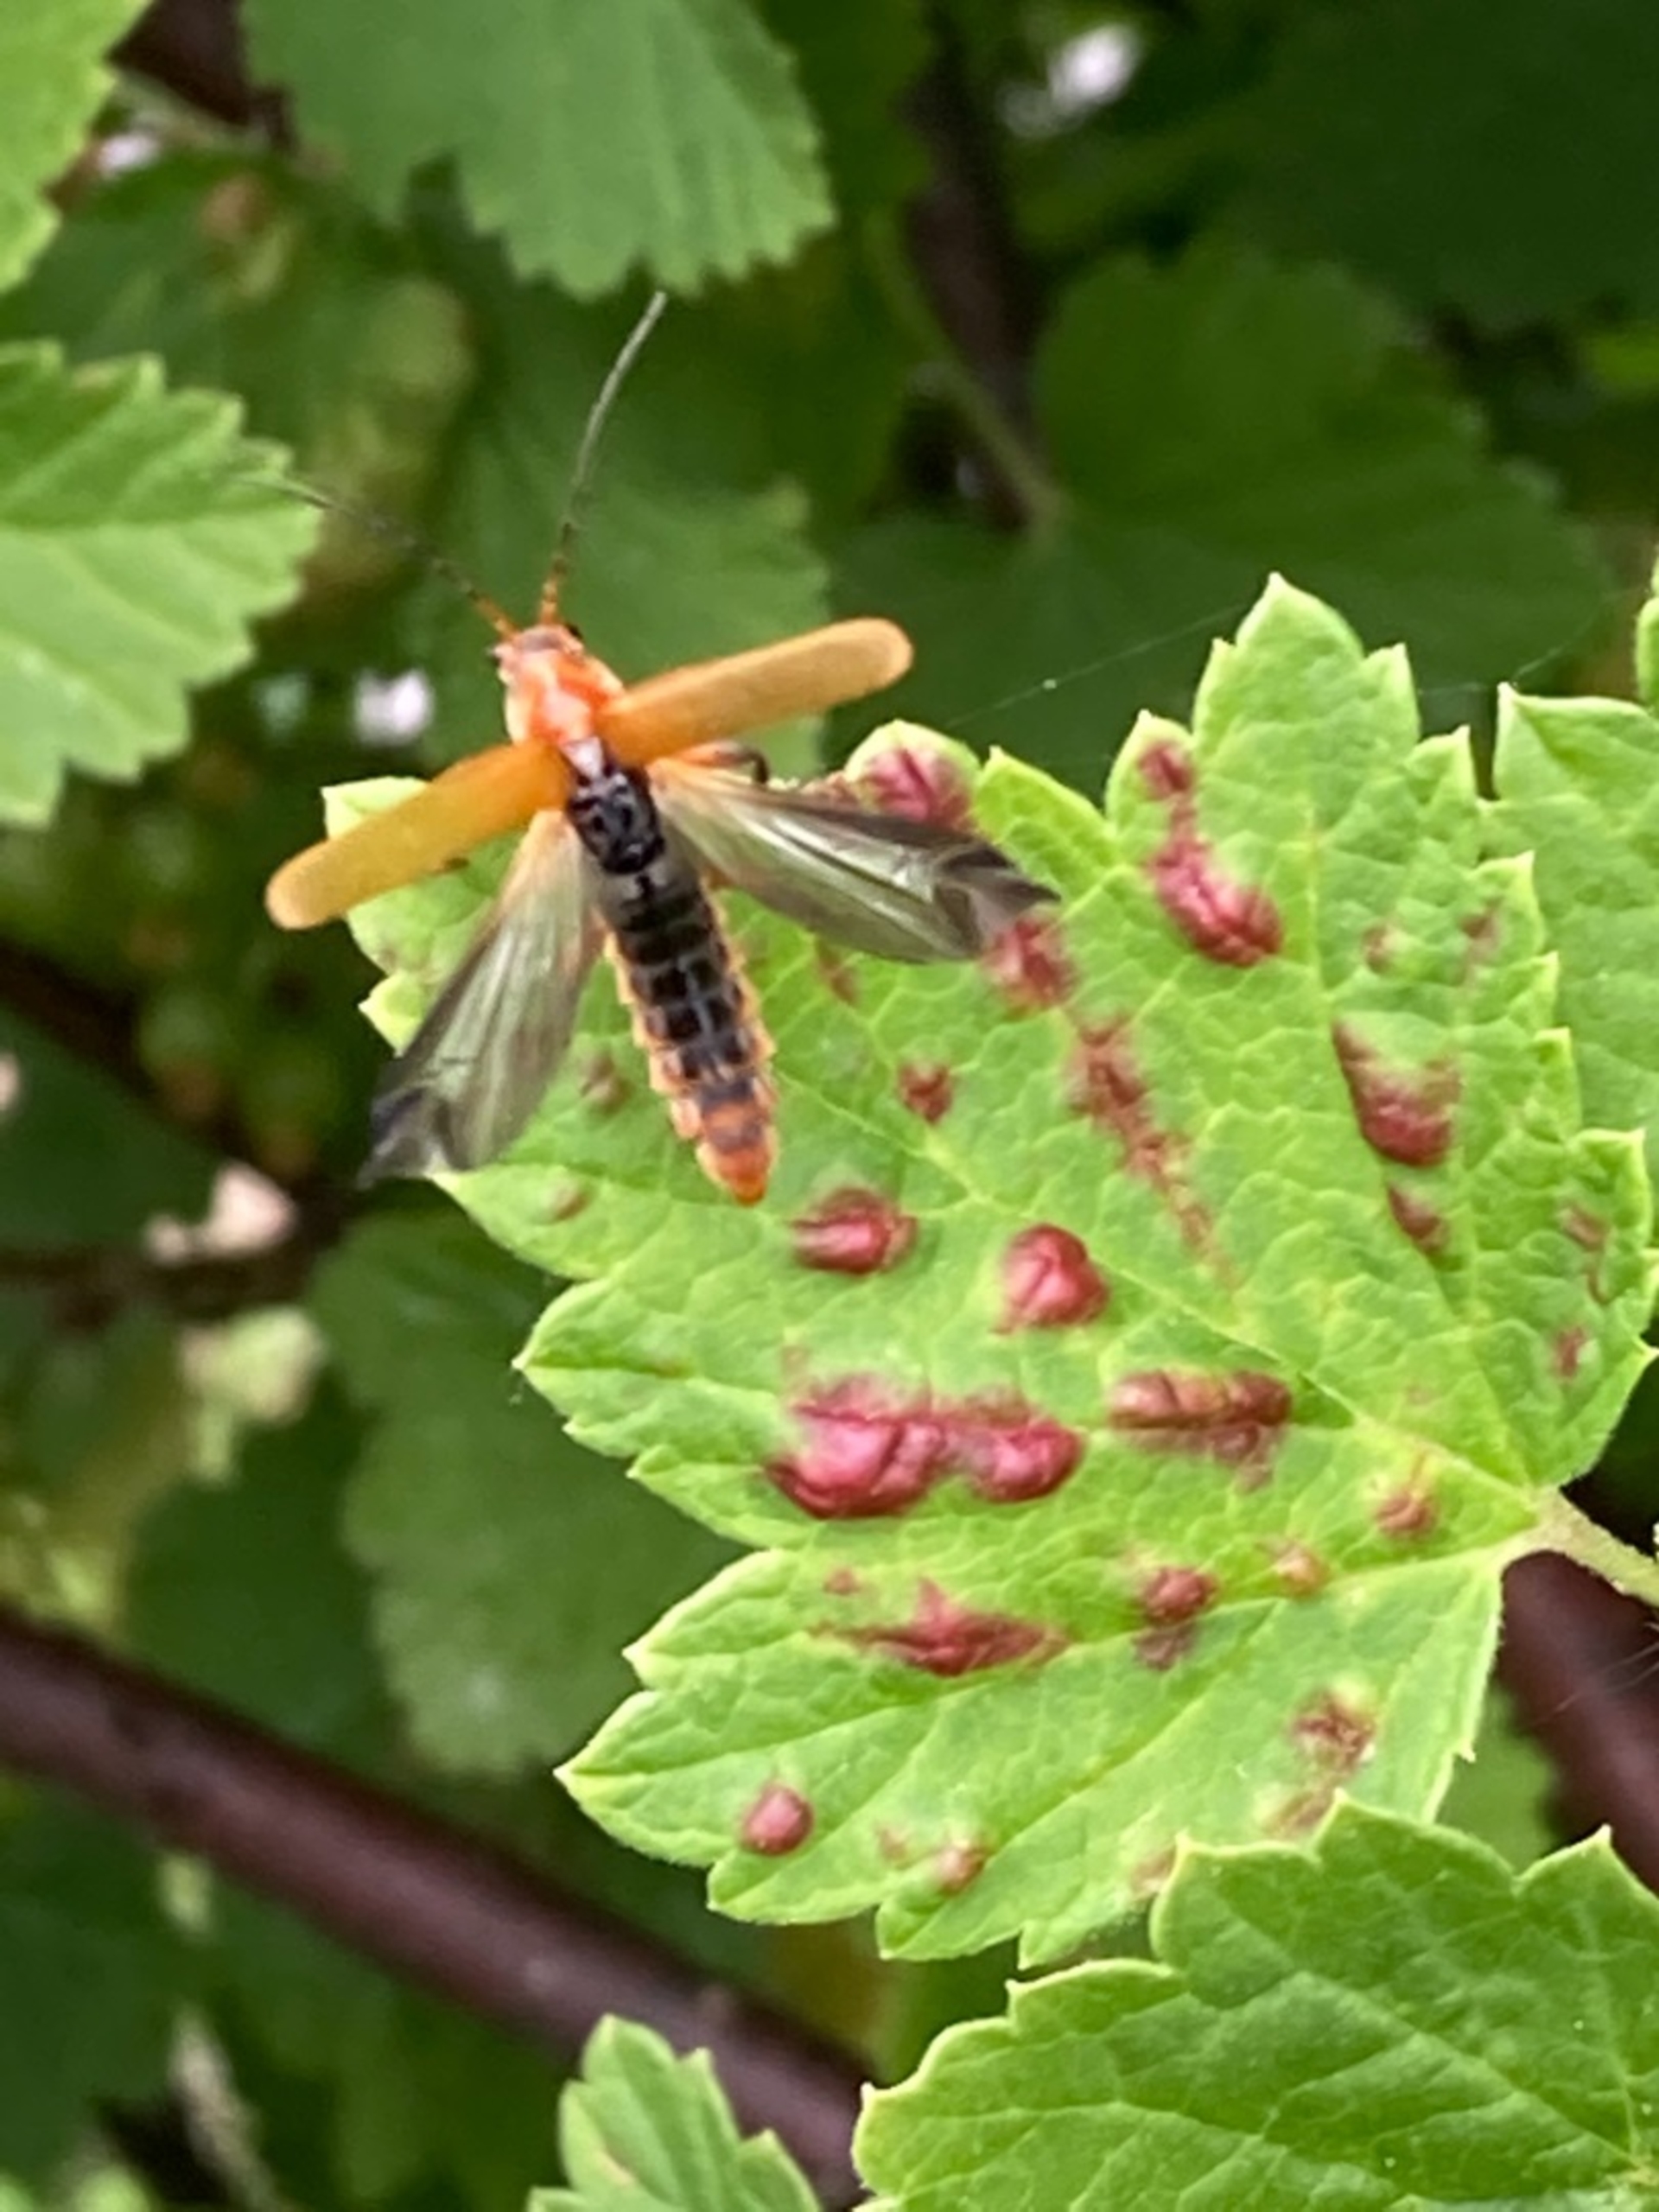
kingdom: Animalia
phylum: Arthropoda
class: Insecta
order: Coleoptera
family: Cantharidae
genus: Cantharis
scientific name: Cantharis livida
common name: Gul blødvinge
